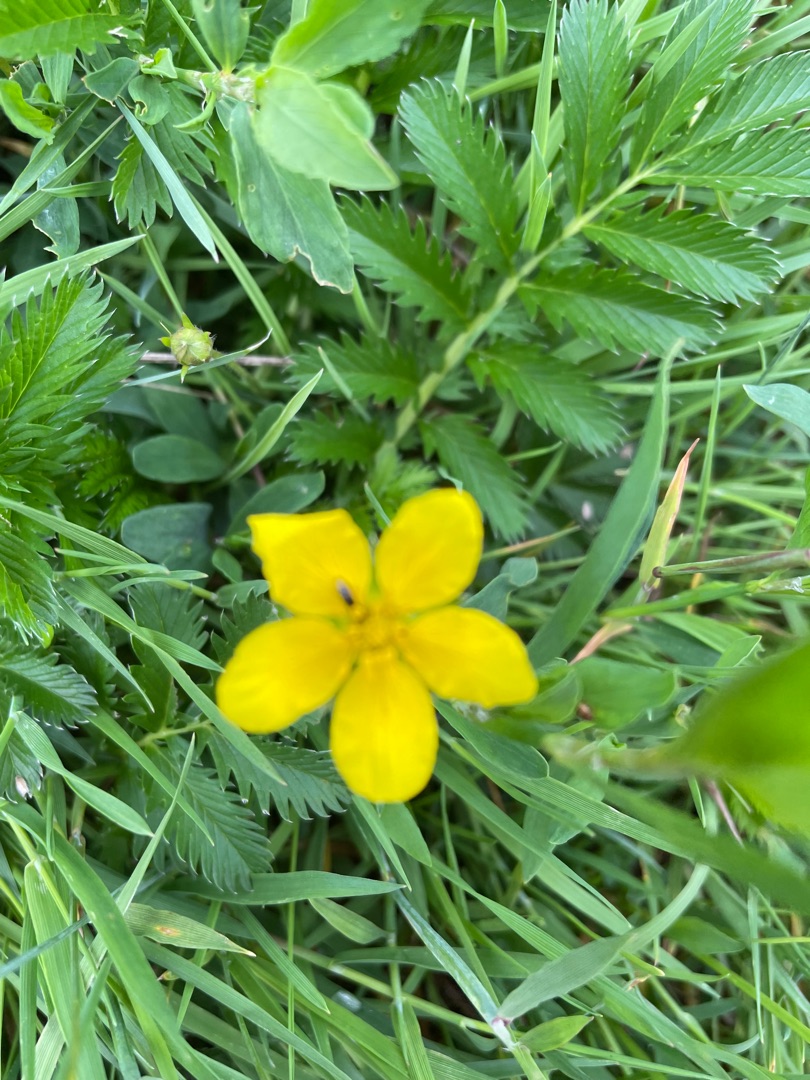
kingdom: Plantae
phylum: Tracheophyta
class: Magnoliopsida
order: Rosales
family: Rosaceae
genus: Argentina
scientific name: Argentina anserina
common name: Gåsepotentil
